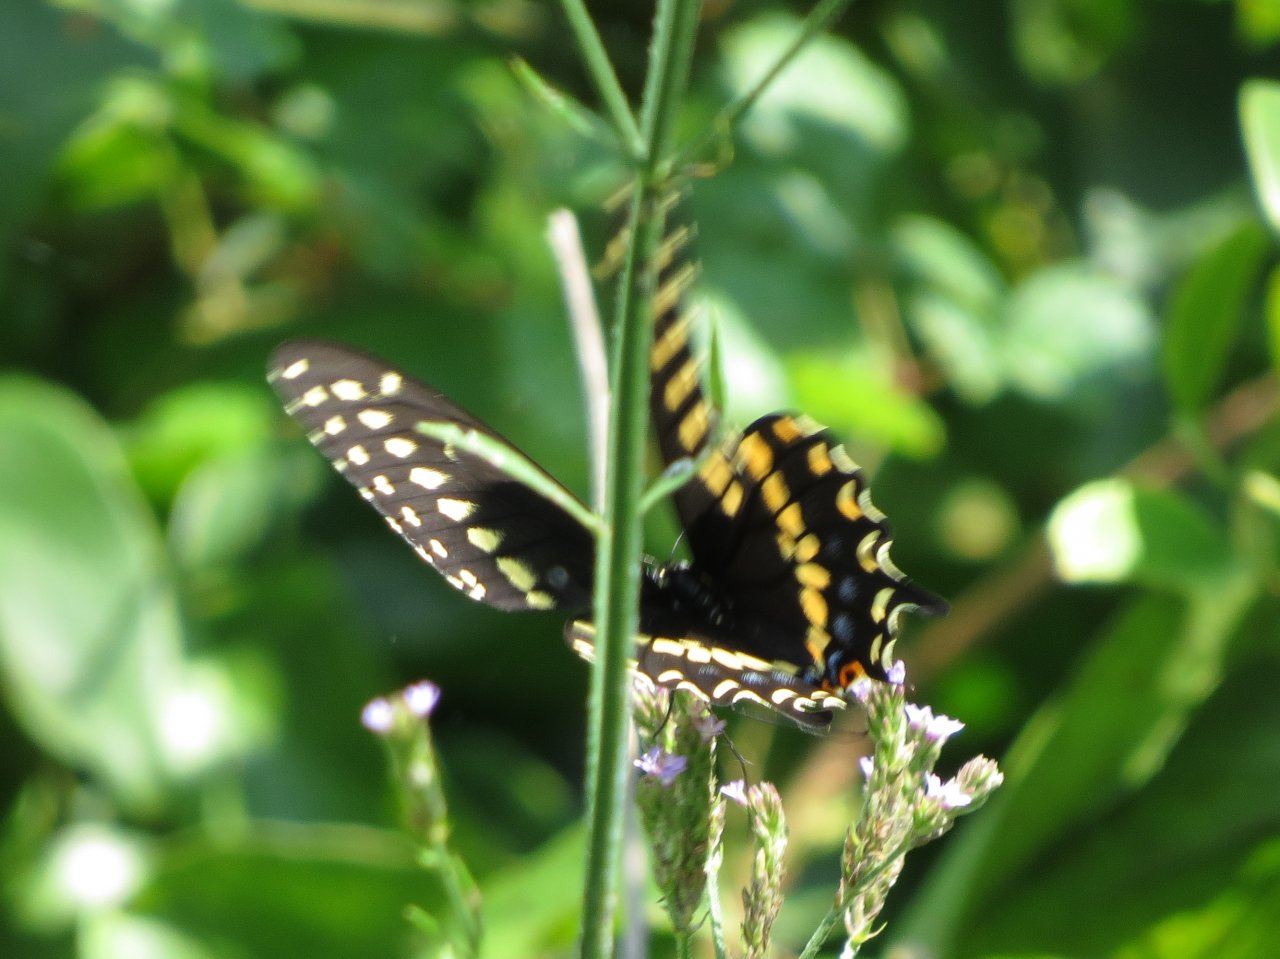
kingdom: Animalia
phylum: Arthropoda
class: Insecta
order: Lepidoptera
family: Papilionidae
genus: Papilio
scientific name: Papilio polyxenes
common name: Black Swallowtail
